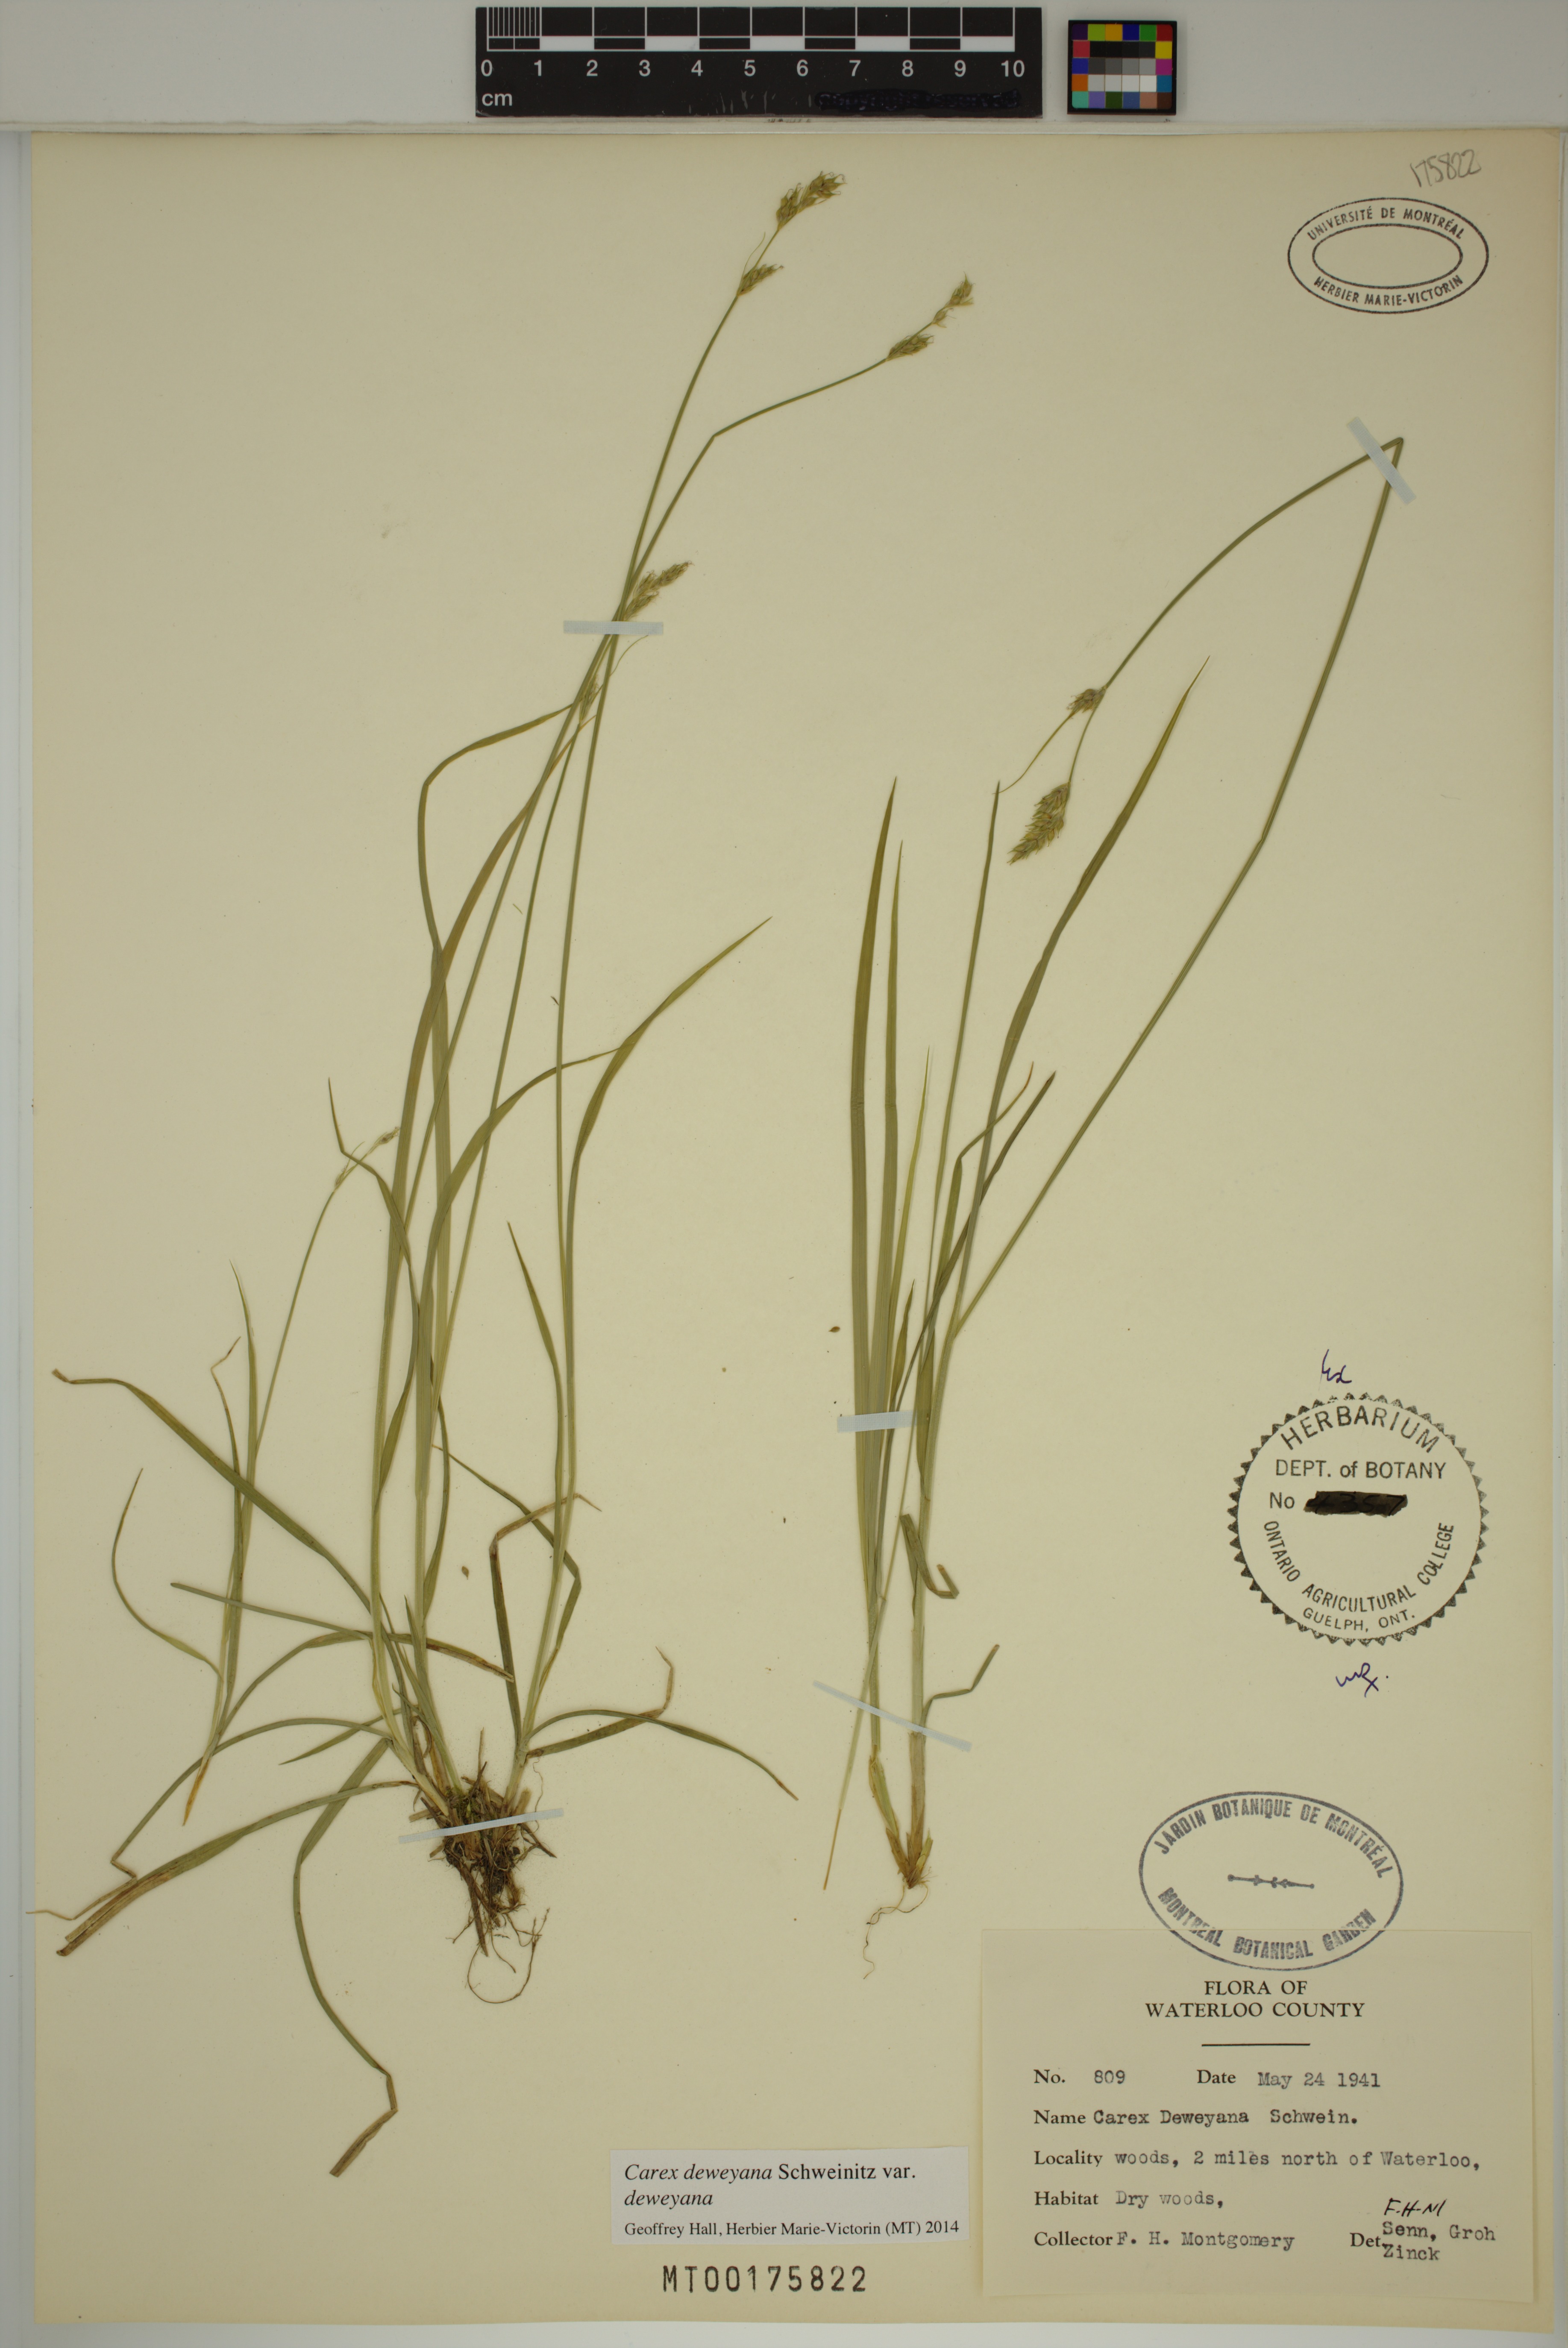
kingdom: Plantae
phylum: Tracheophyta
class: Liliopsida
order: Poales
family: Cyperaceae
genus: Carex
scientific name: Carex deweyana
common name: Dewey's sedge
